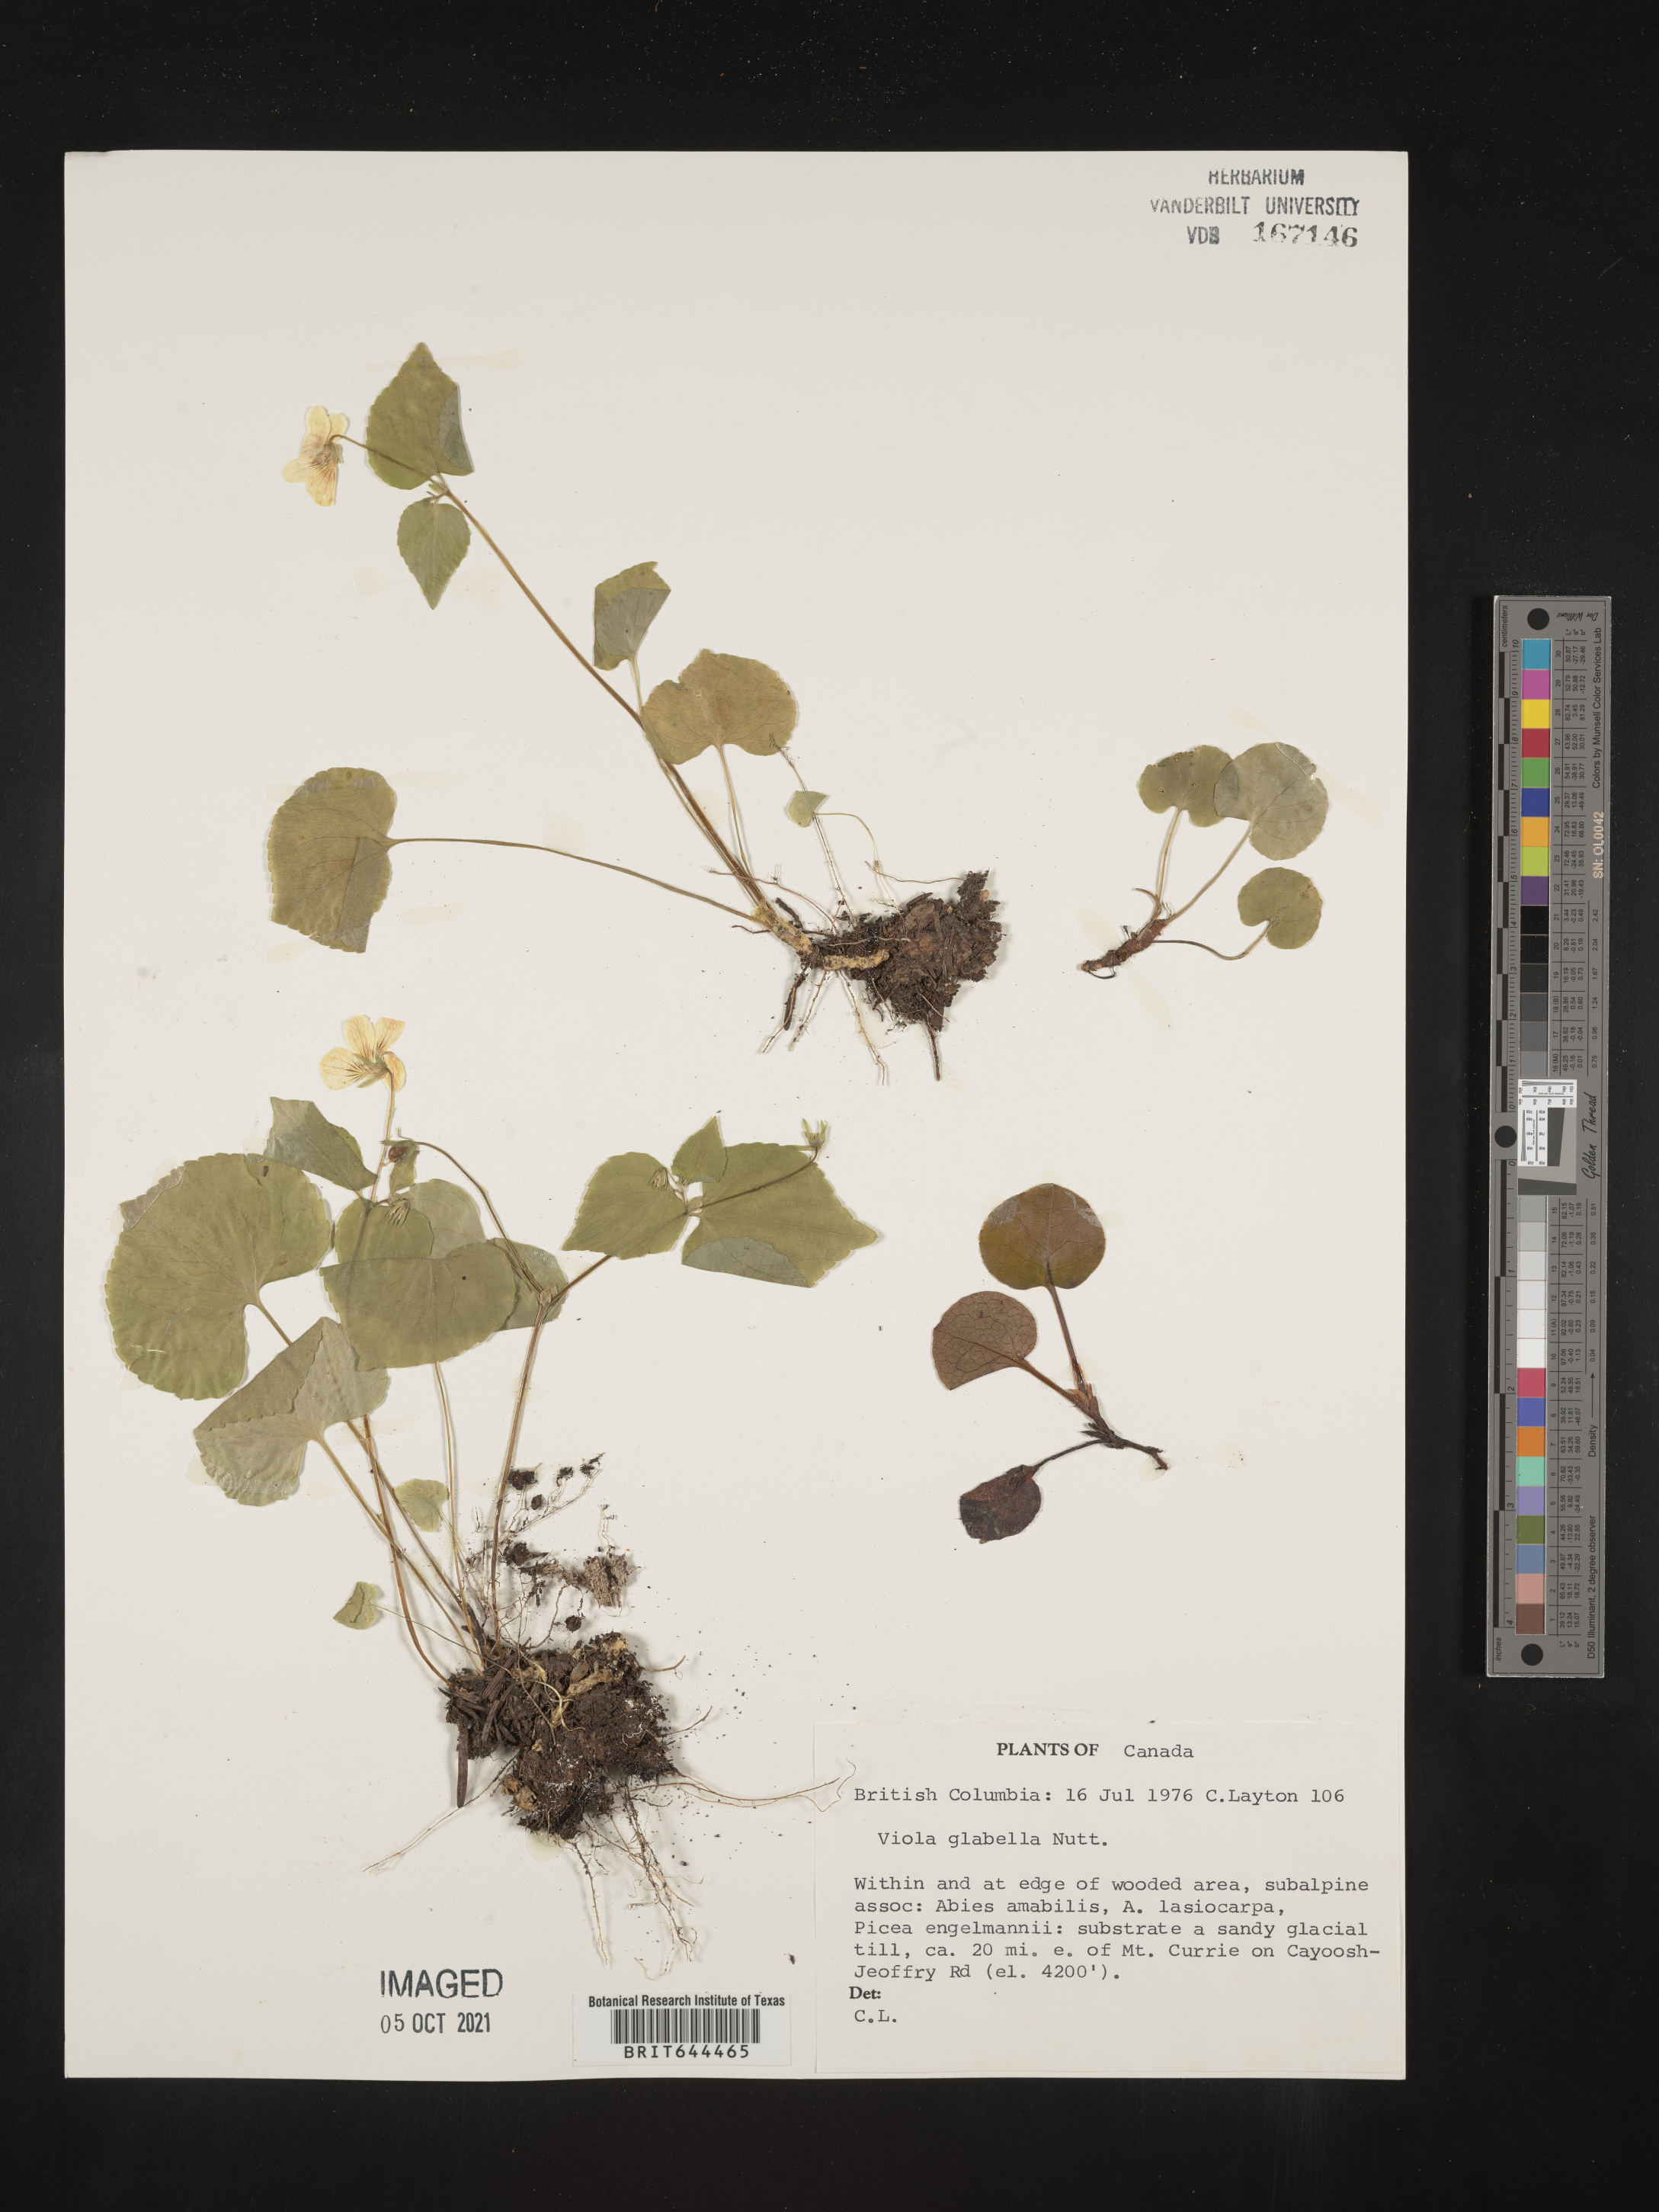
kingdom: Plantae
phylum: Tracheophyta
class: Magnoliopsida
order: Malpighiales
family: Violaceae
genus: Viola
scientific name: Viola
